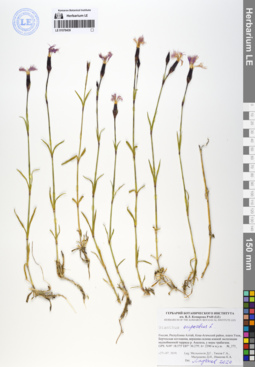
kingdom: Plantae
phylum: Tracheophyta
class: Magnoliopsida
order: Caryophyllales
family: Caryophyllaceae
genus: Dianthus
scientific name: Dianthus superbus
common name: Fringed pink
